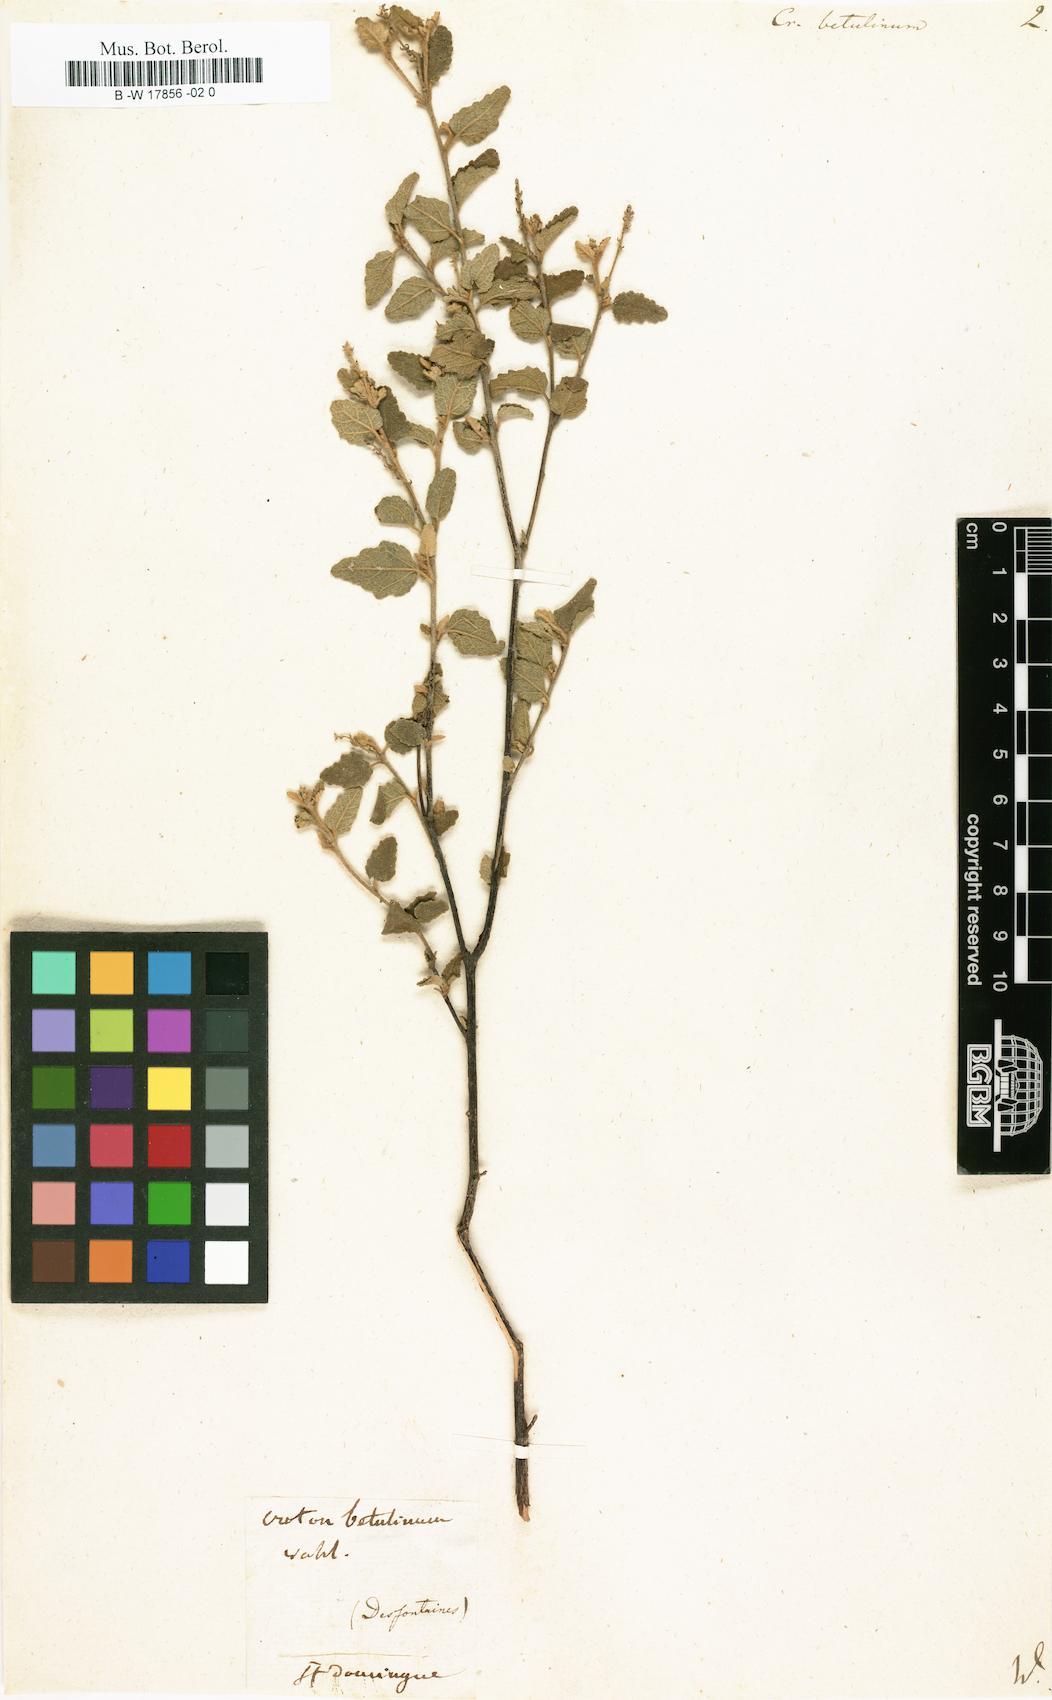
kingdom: Plantae
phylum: Tracheophyta
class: Magnoliopsida
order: Malpighiales
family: Euphorbiaceae
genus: Croton
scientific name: Croton betulinus
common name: Black sage
